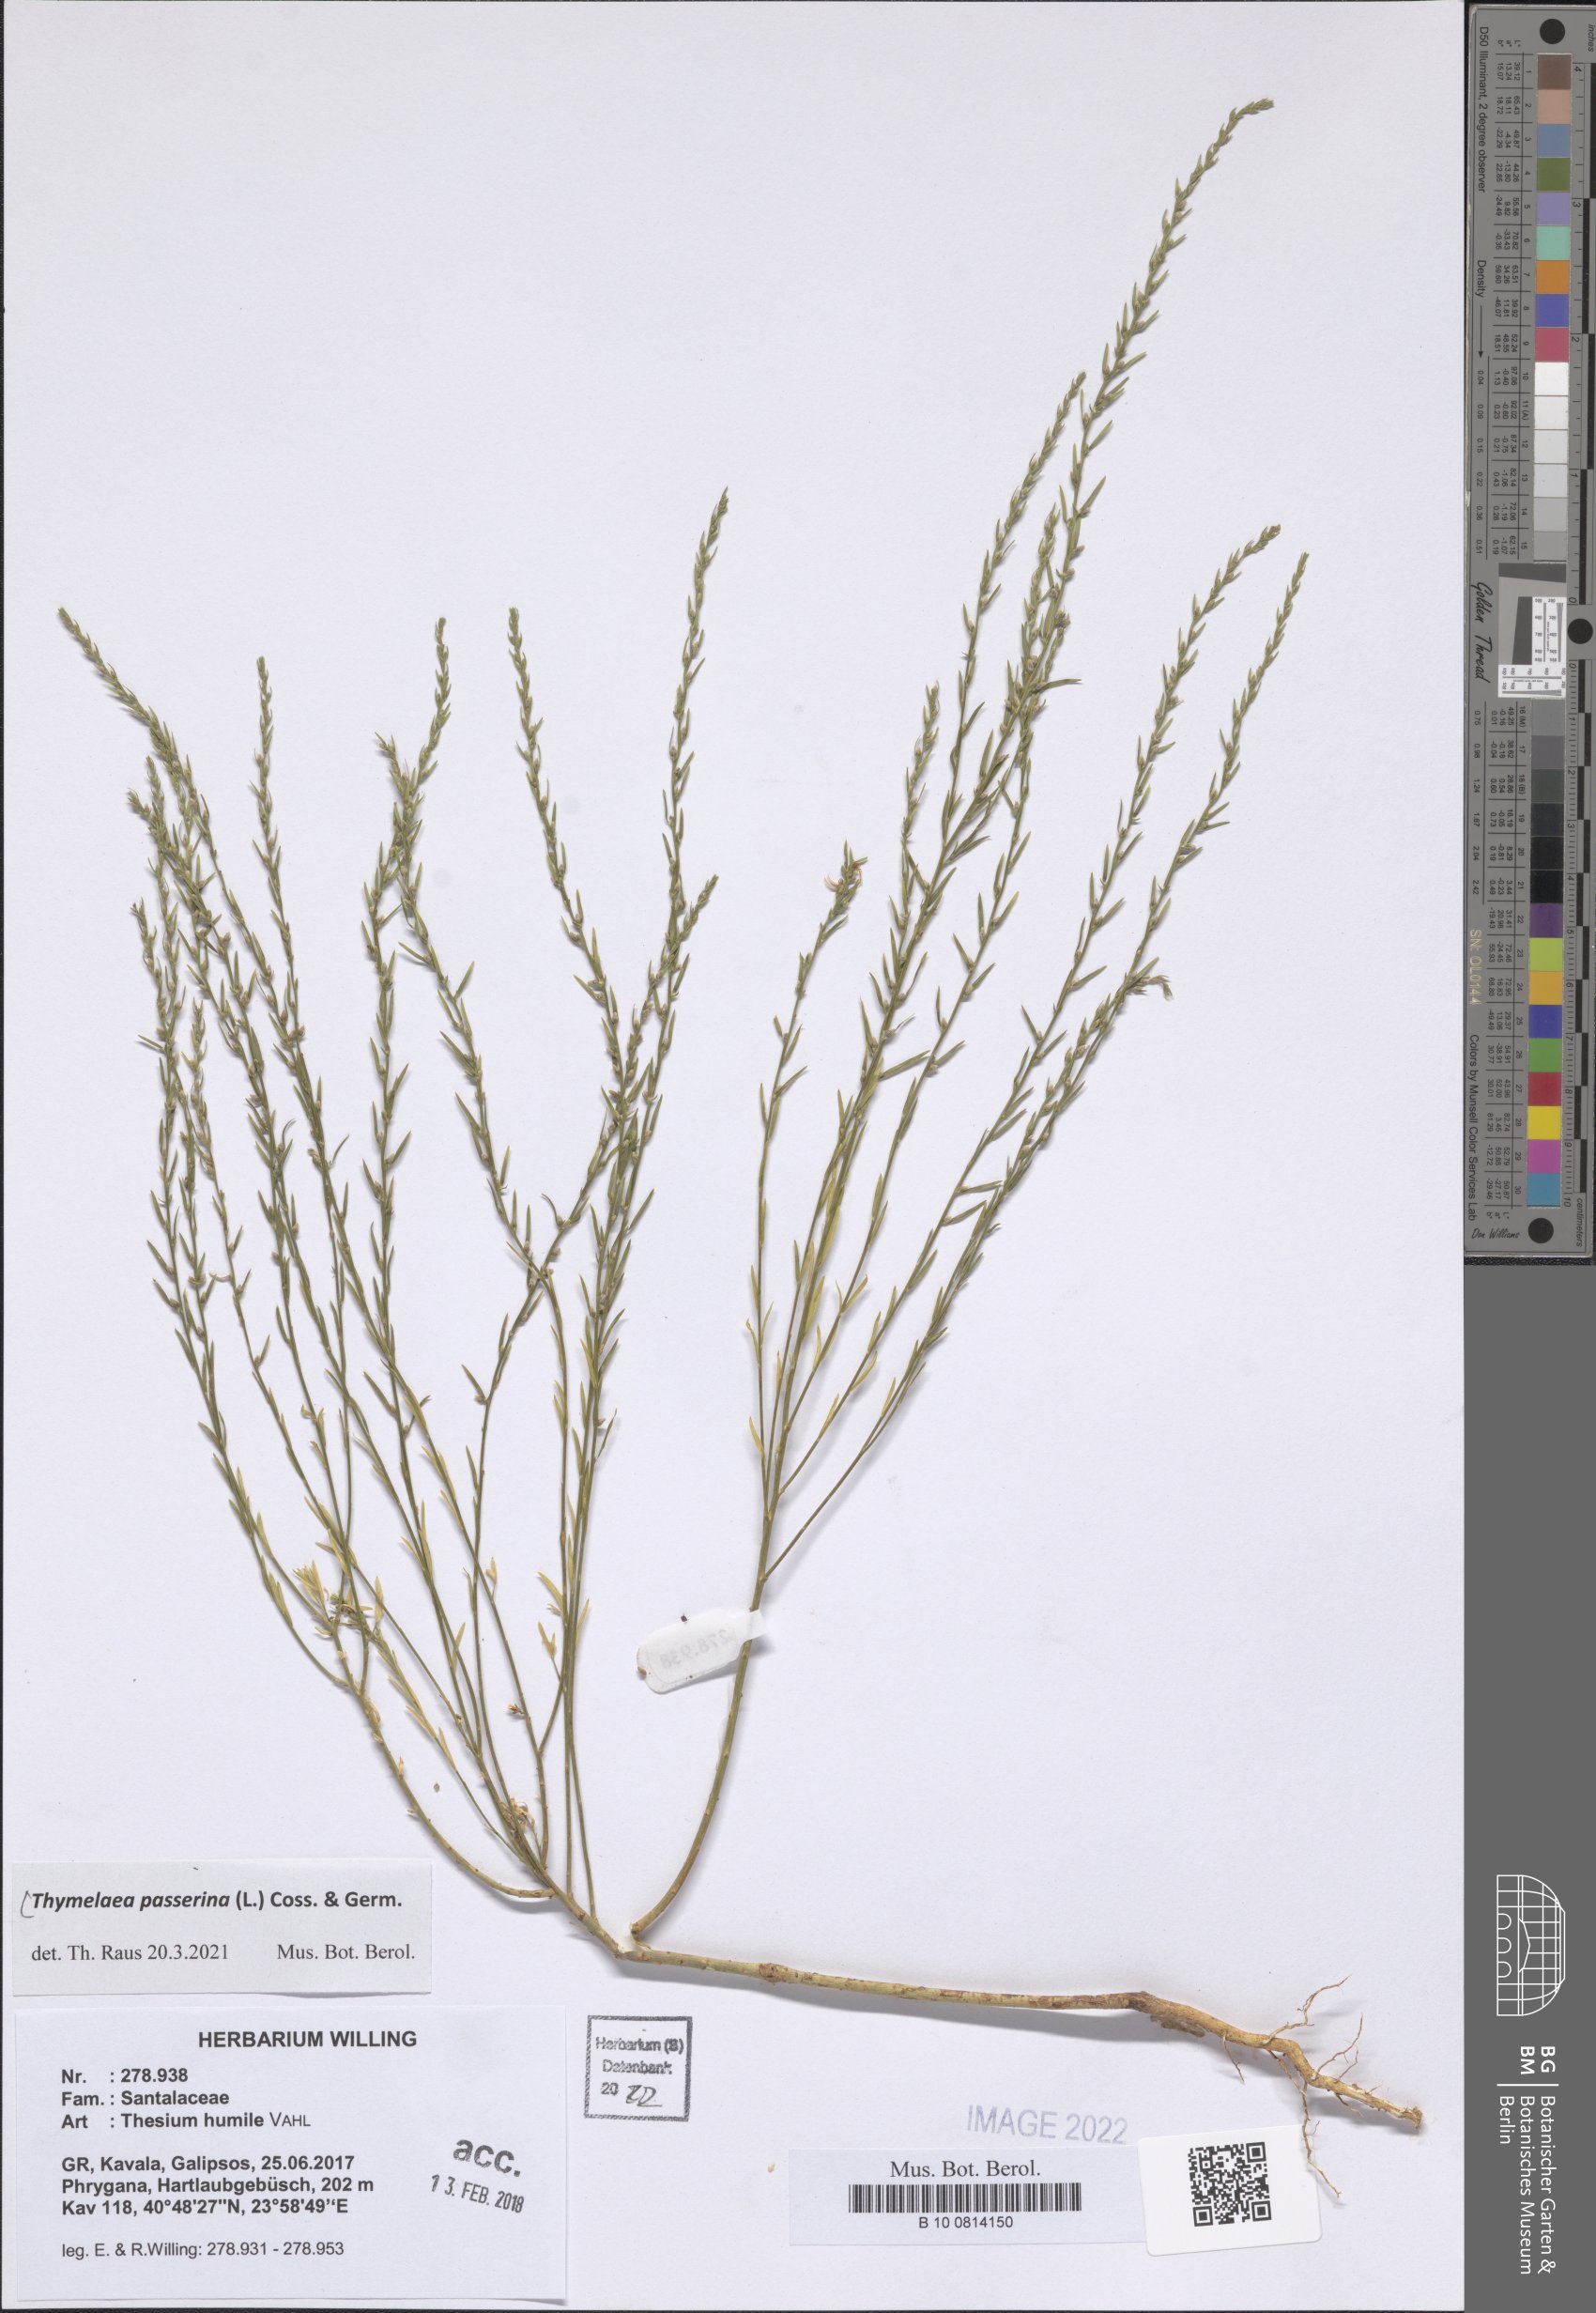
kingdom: Plantae
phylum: Tracheophyta
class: Magnoliopsida
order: Malvales
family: Thymelaeaceae
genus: Thymelaea
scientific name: Thymelaea passerina
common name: Annual thymelaea
